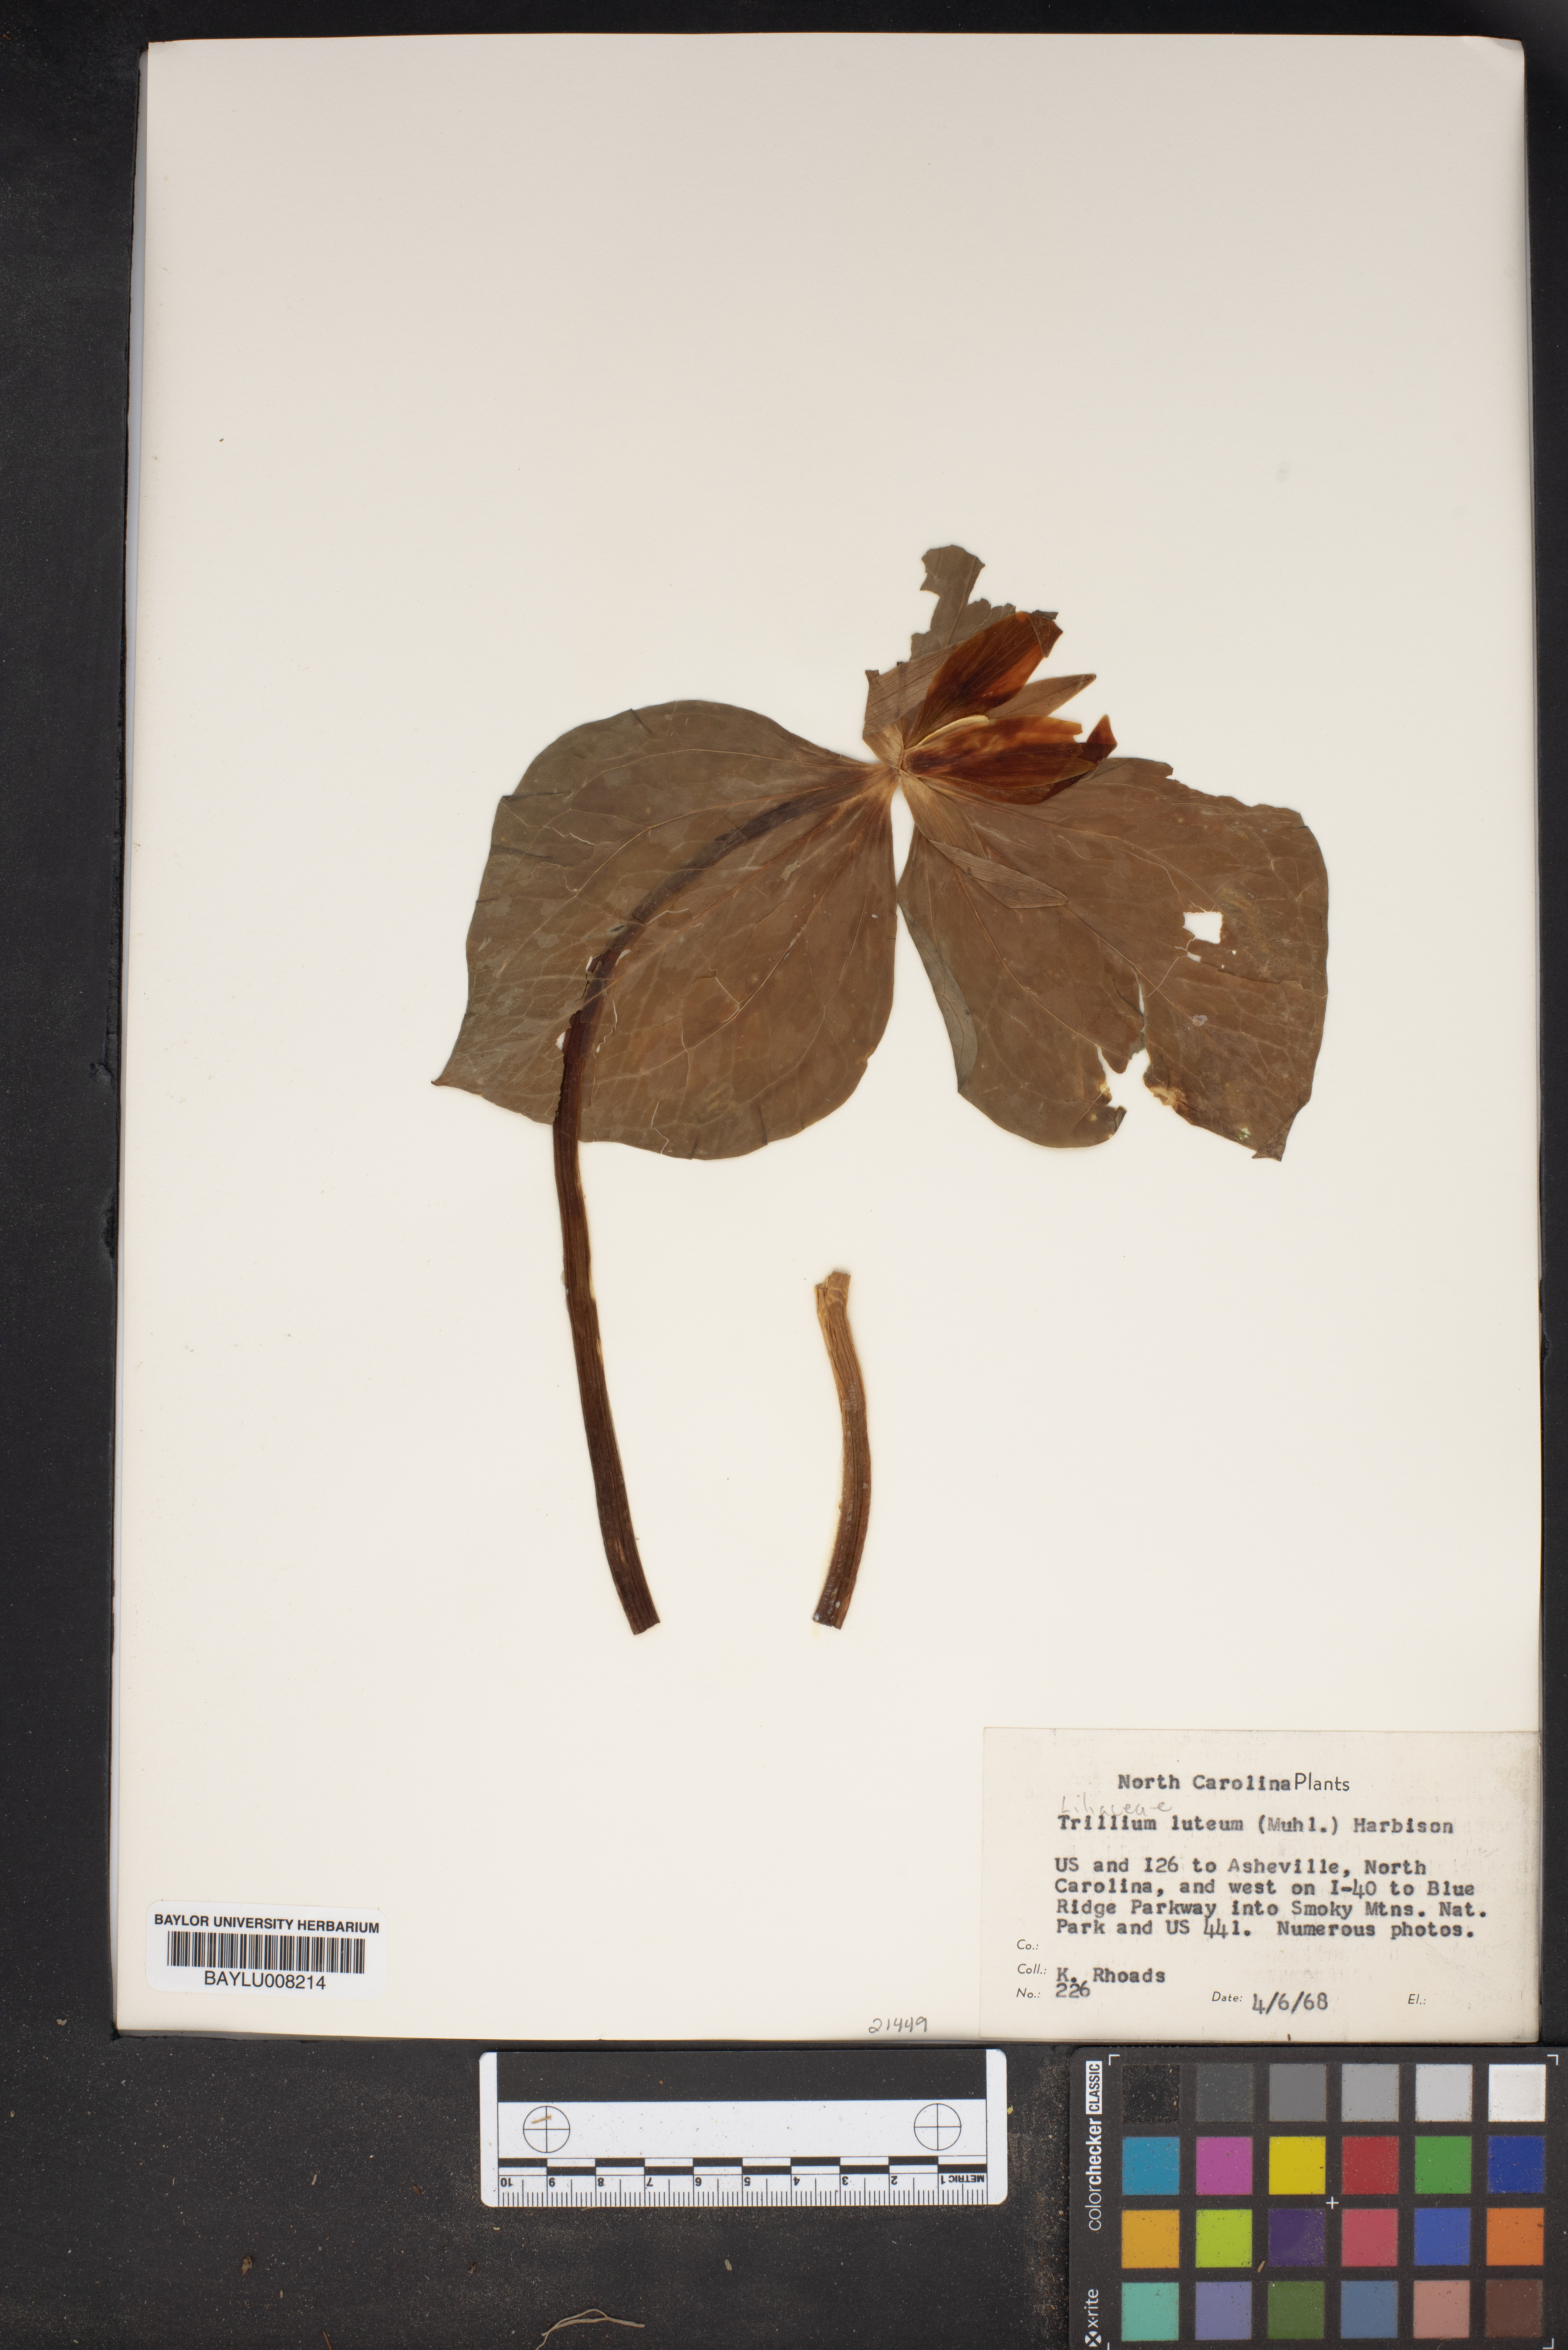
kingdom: Plantae
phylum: Tracheophyta
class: Liliopsida
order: Liliales
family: Melanthiaceae
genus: Trillium
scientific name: Trillium luteum
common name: Wax trillium
